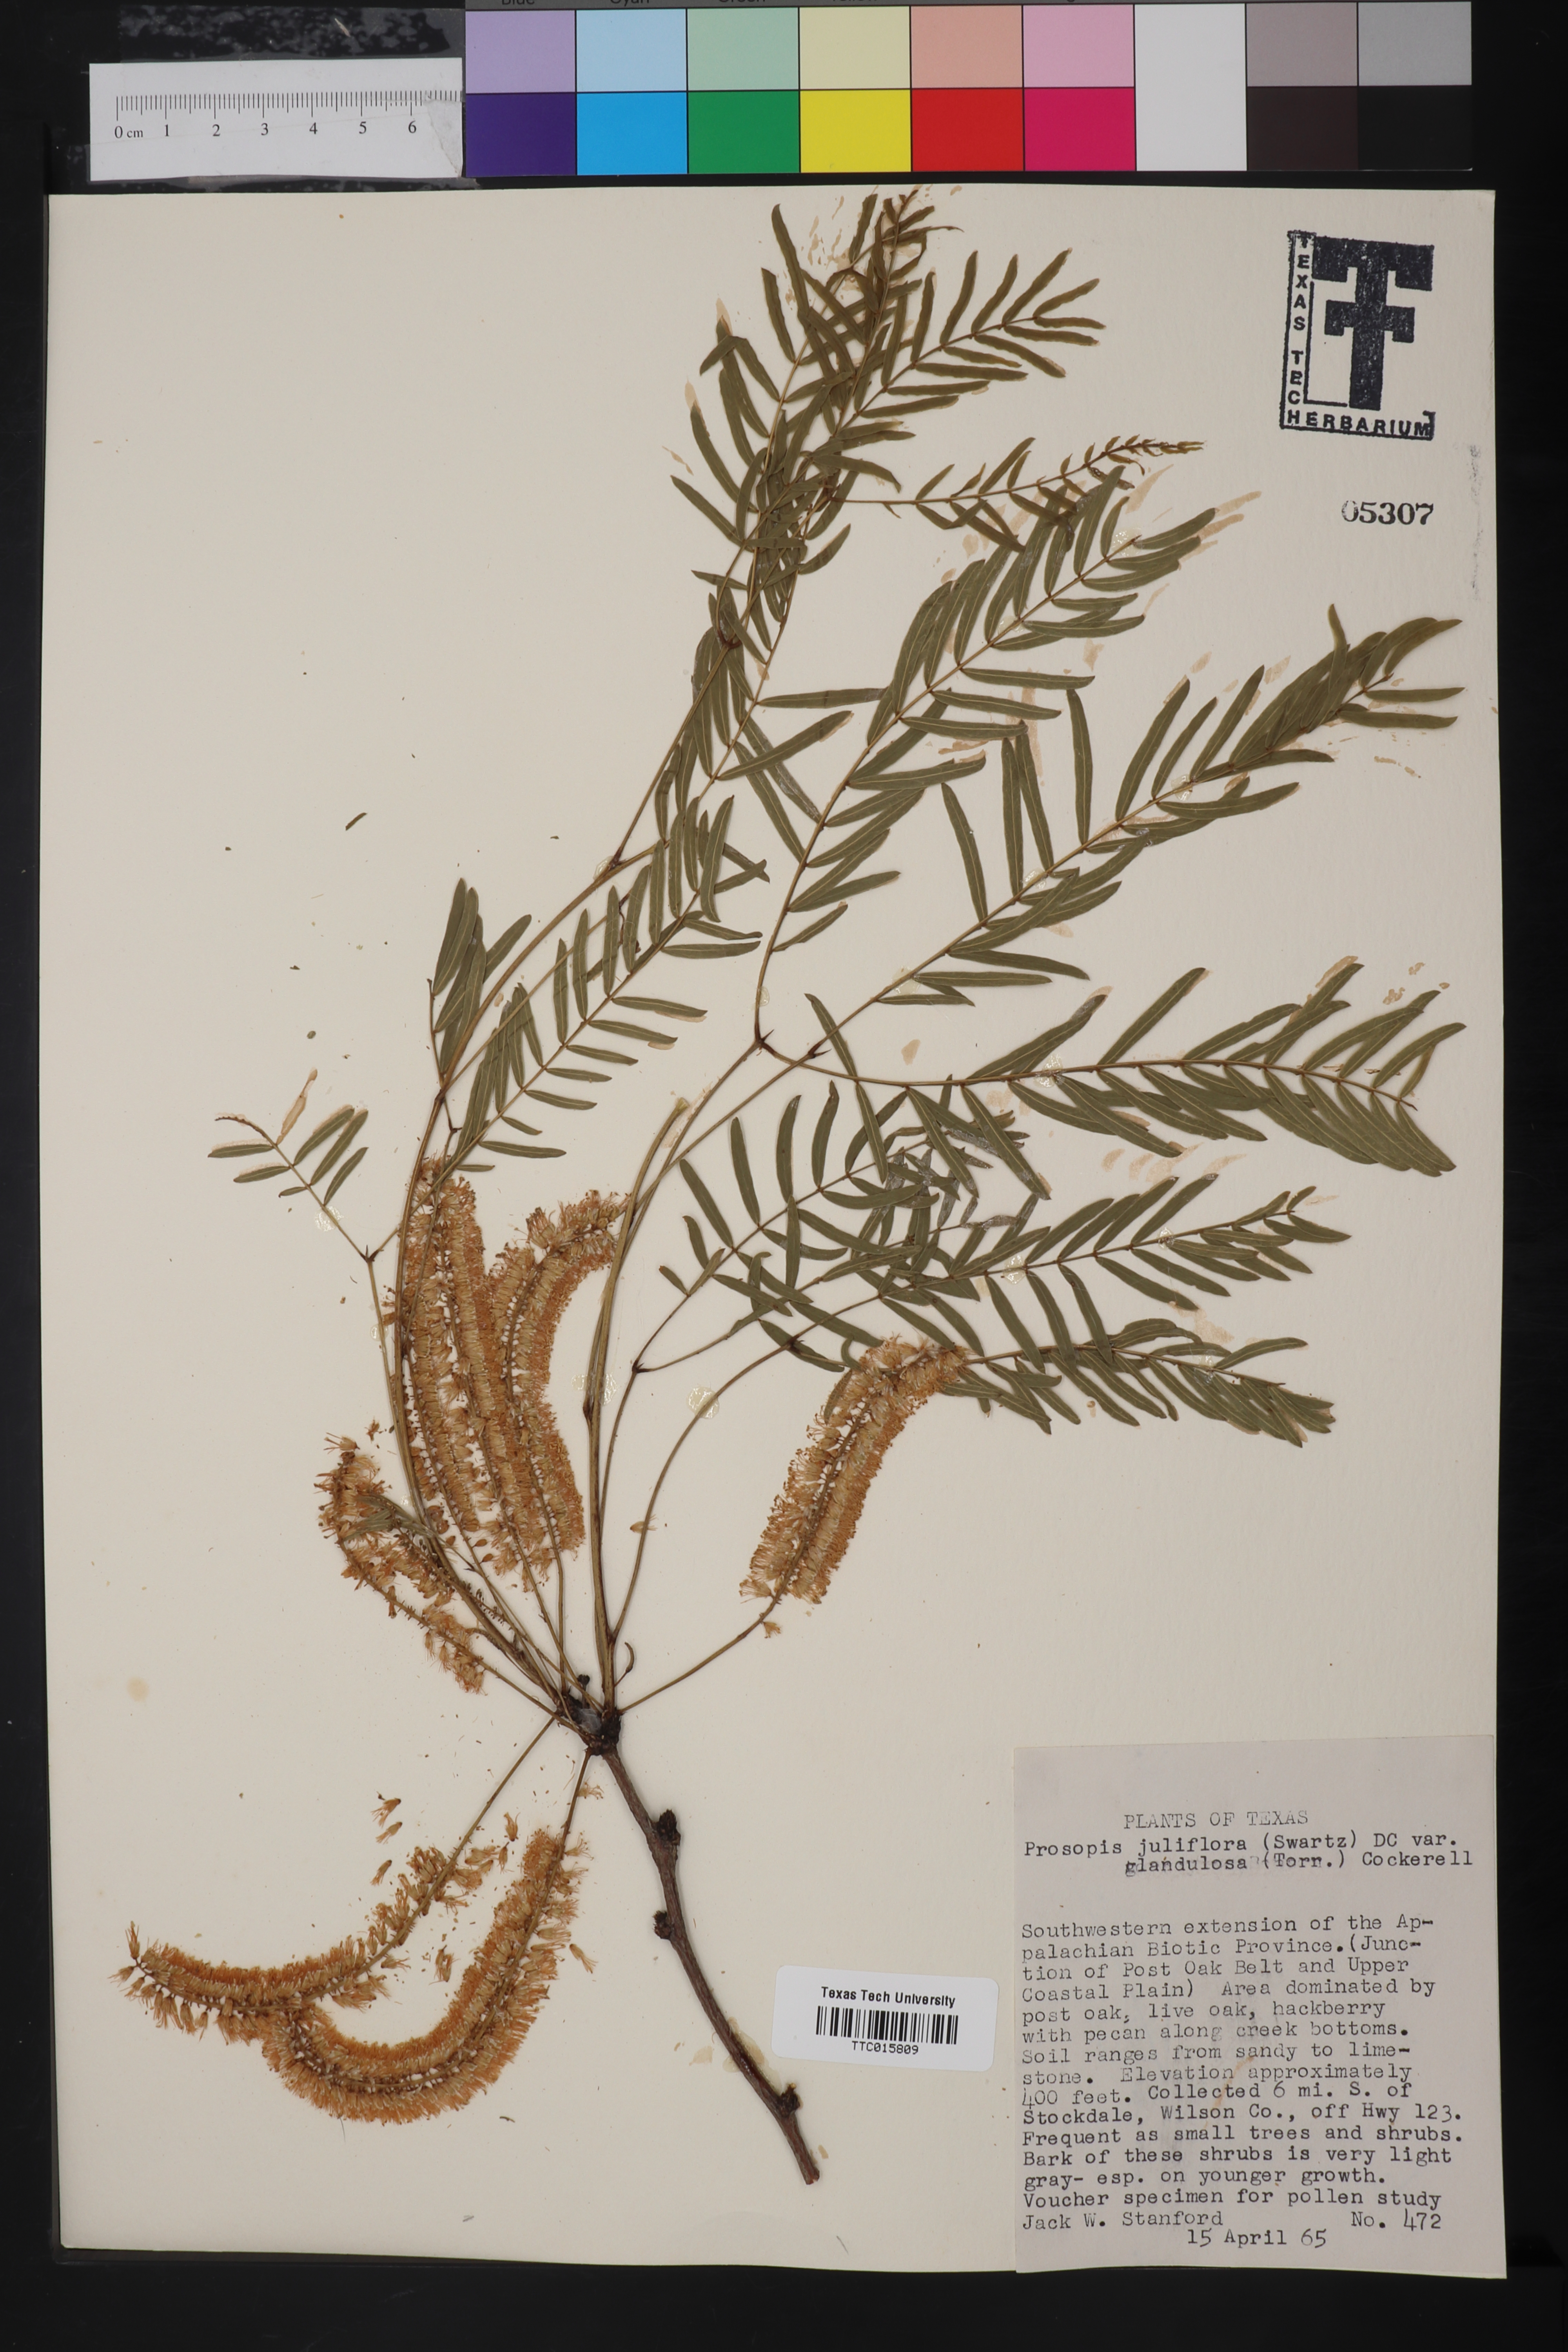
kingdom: Plantae
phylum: Tracheophyta
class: Magnoliopsida
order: Fabales
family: Fabaceae
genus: Prosopis
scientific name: Prosopis glandulosa
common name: Honey mesquite
